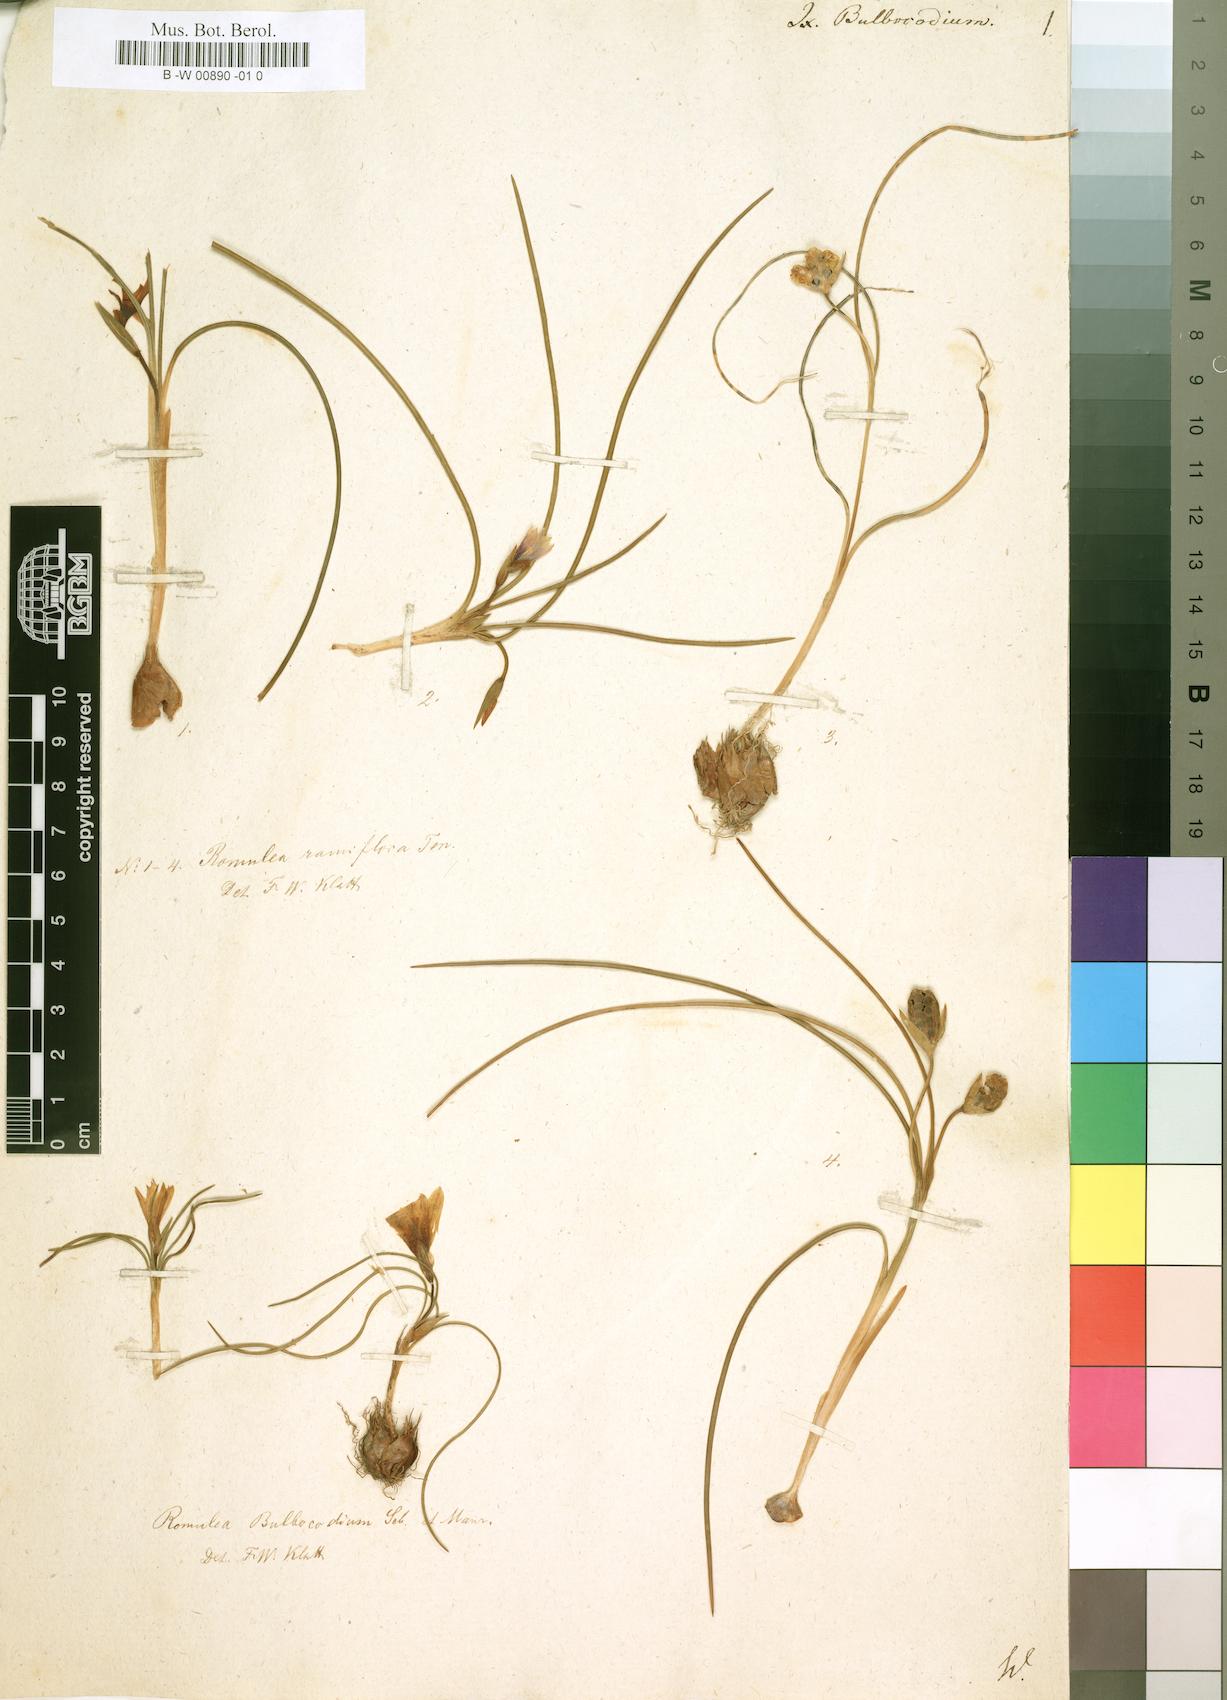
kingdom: Plantae
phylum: Tracheophyta
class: Liliopsida
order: Asparagales
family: Iridaceae
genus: Ixia
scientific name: Ixia bulbocodium
